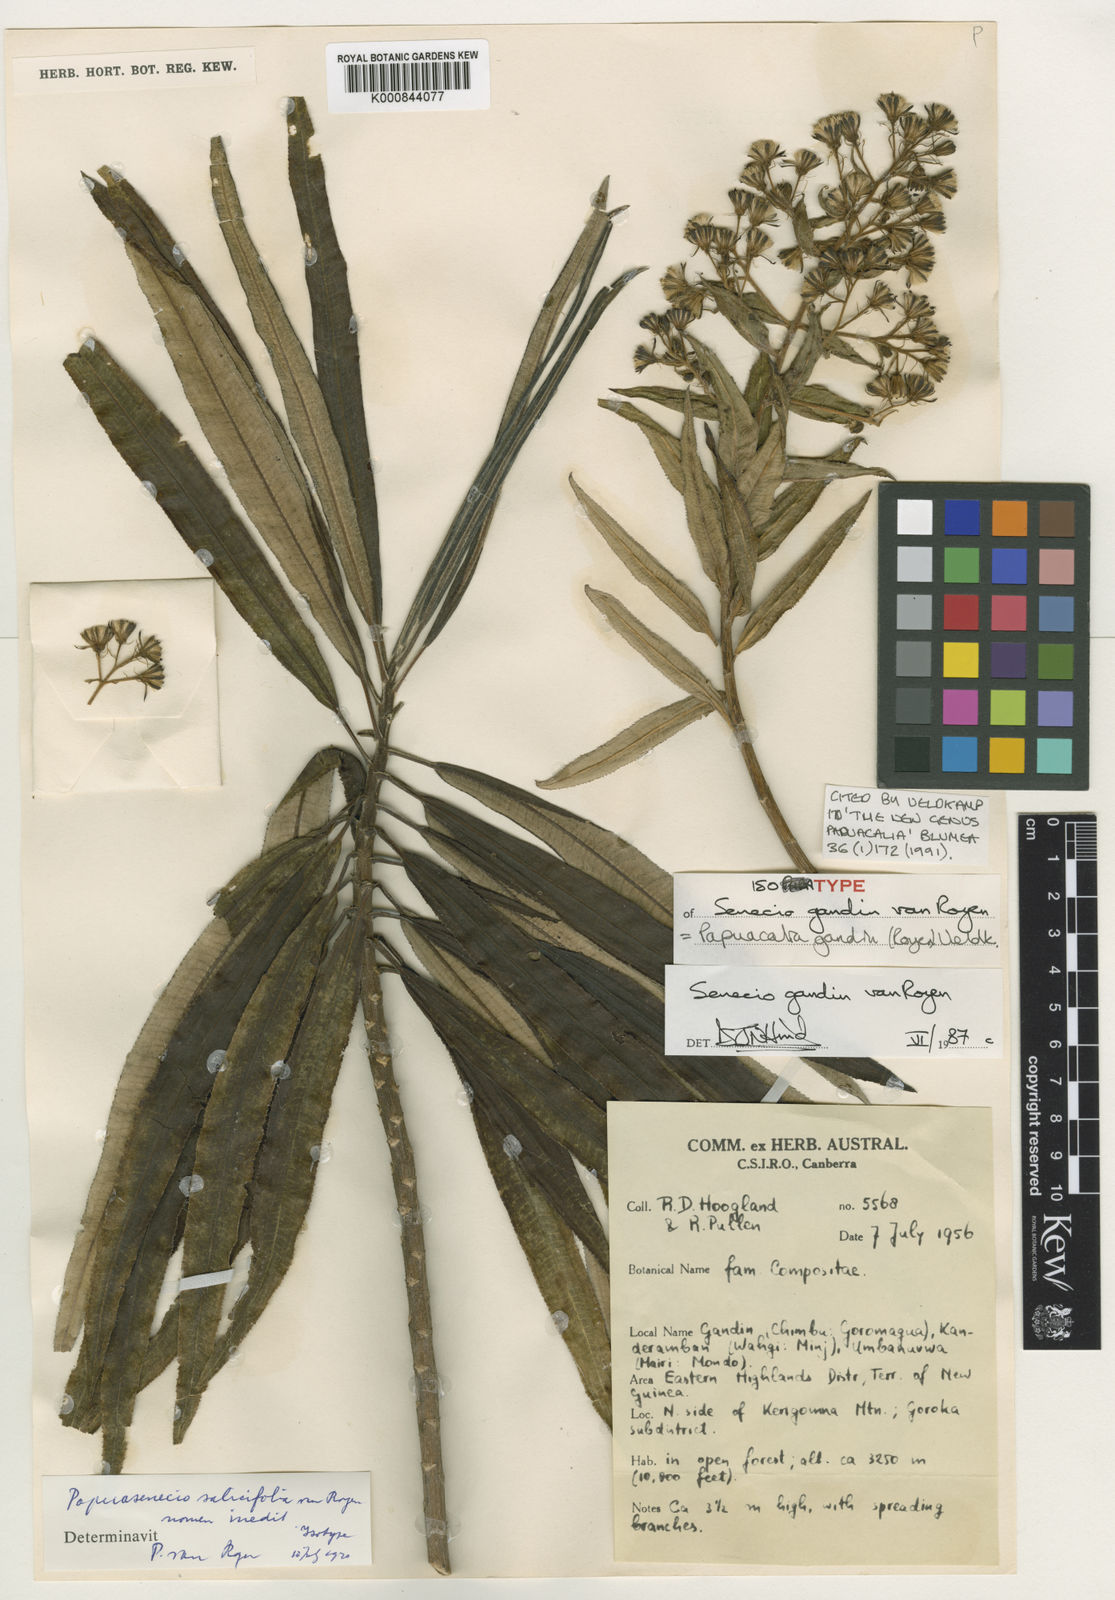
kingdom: Plantae
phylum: Tracheophyta
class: Magnoliopsida
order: Asterales
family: Asteraceae
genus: Papuacalia
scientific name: Papuacalia gandin
